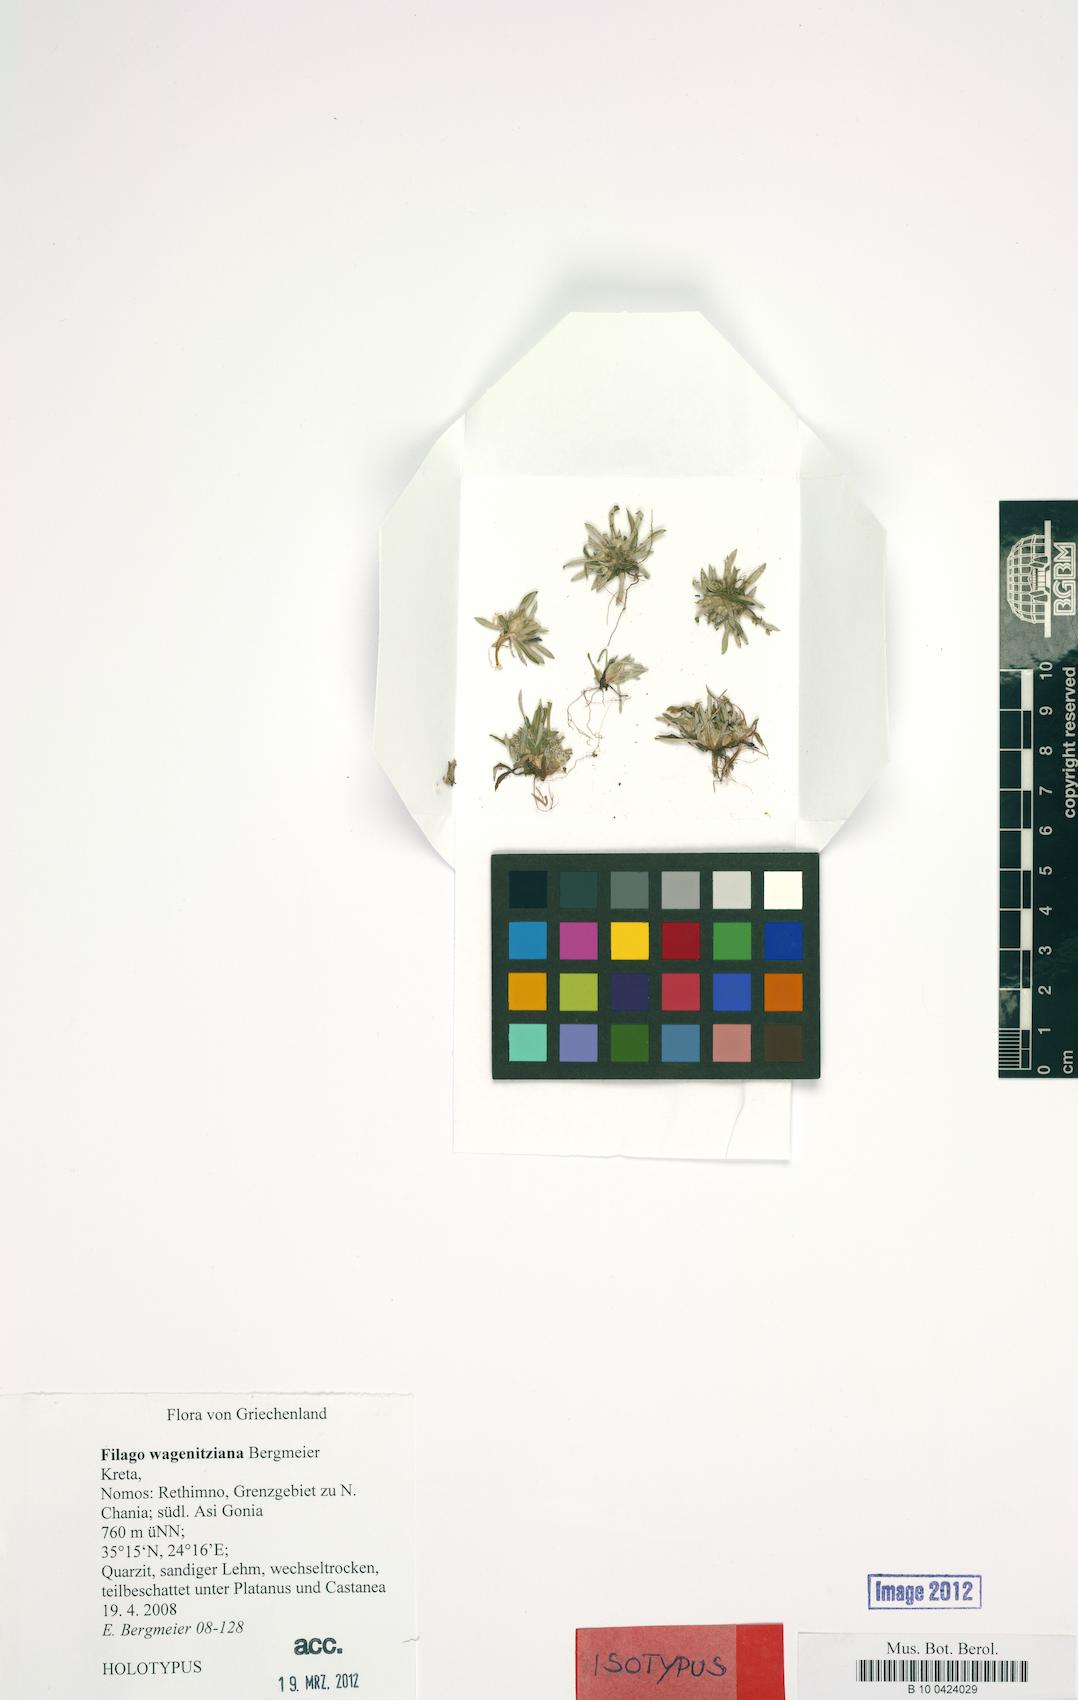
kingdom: Plantae
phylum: Tracheophyta
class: Magnoliopsida
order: Asterales
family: Asteraceae
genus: Filago
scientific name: Filago wagenitziana
